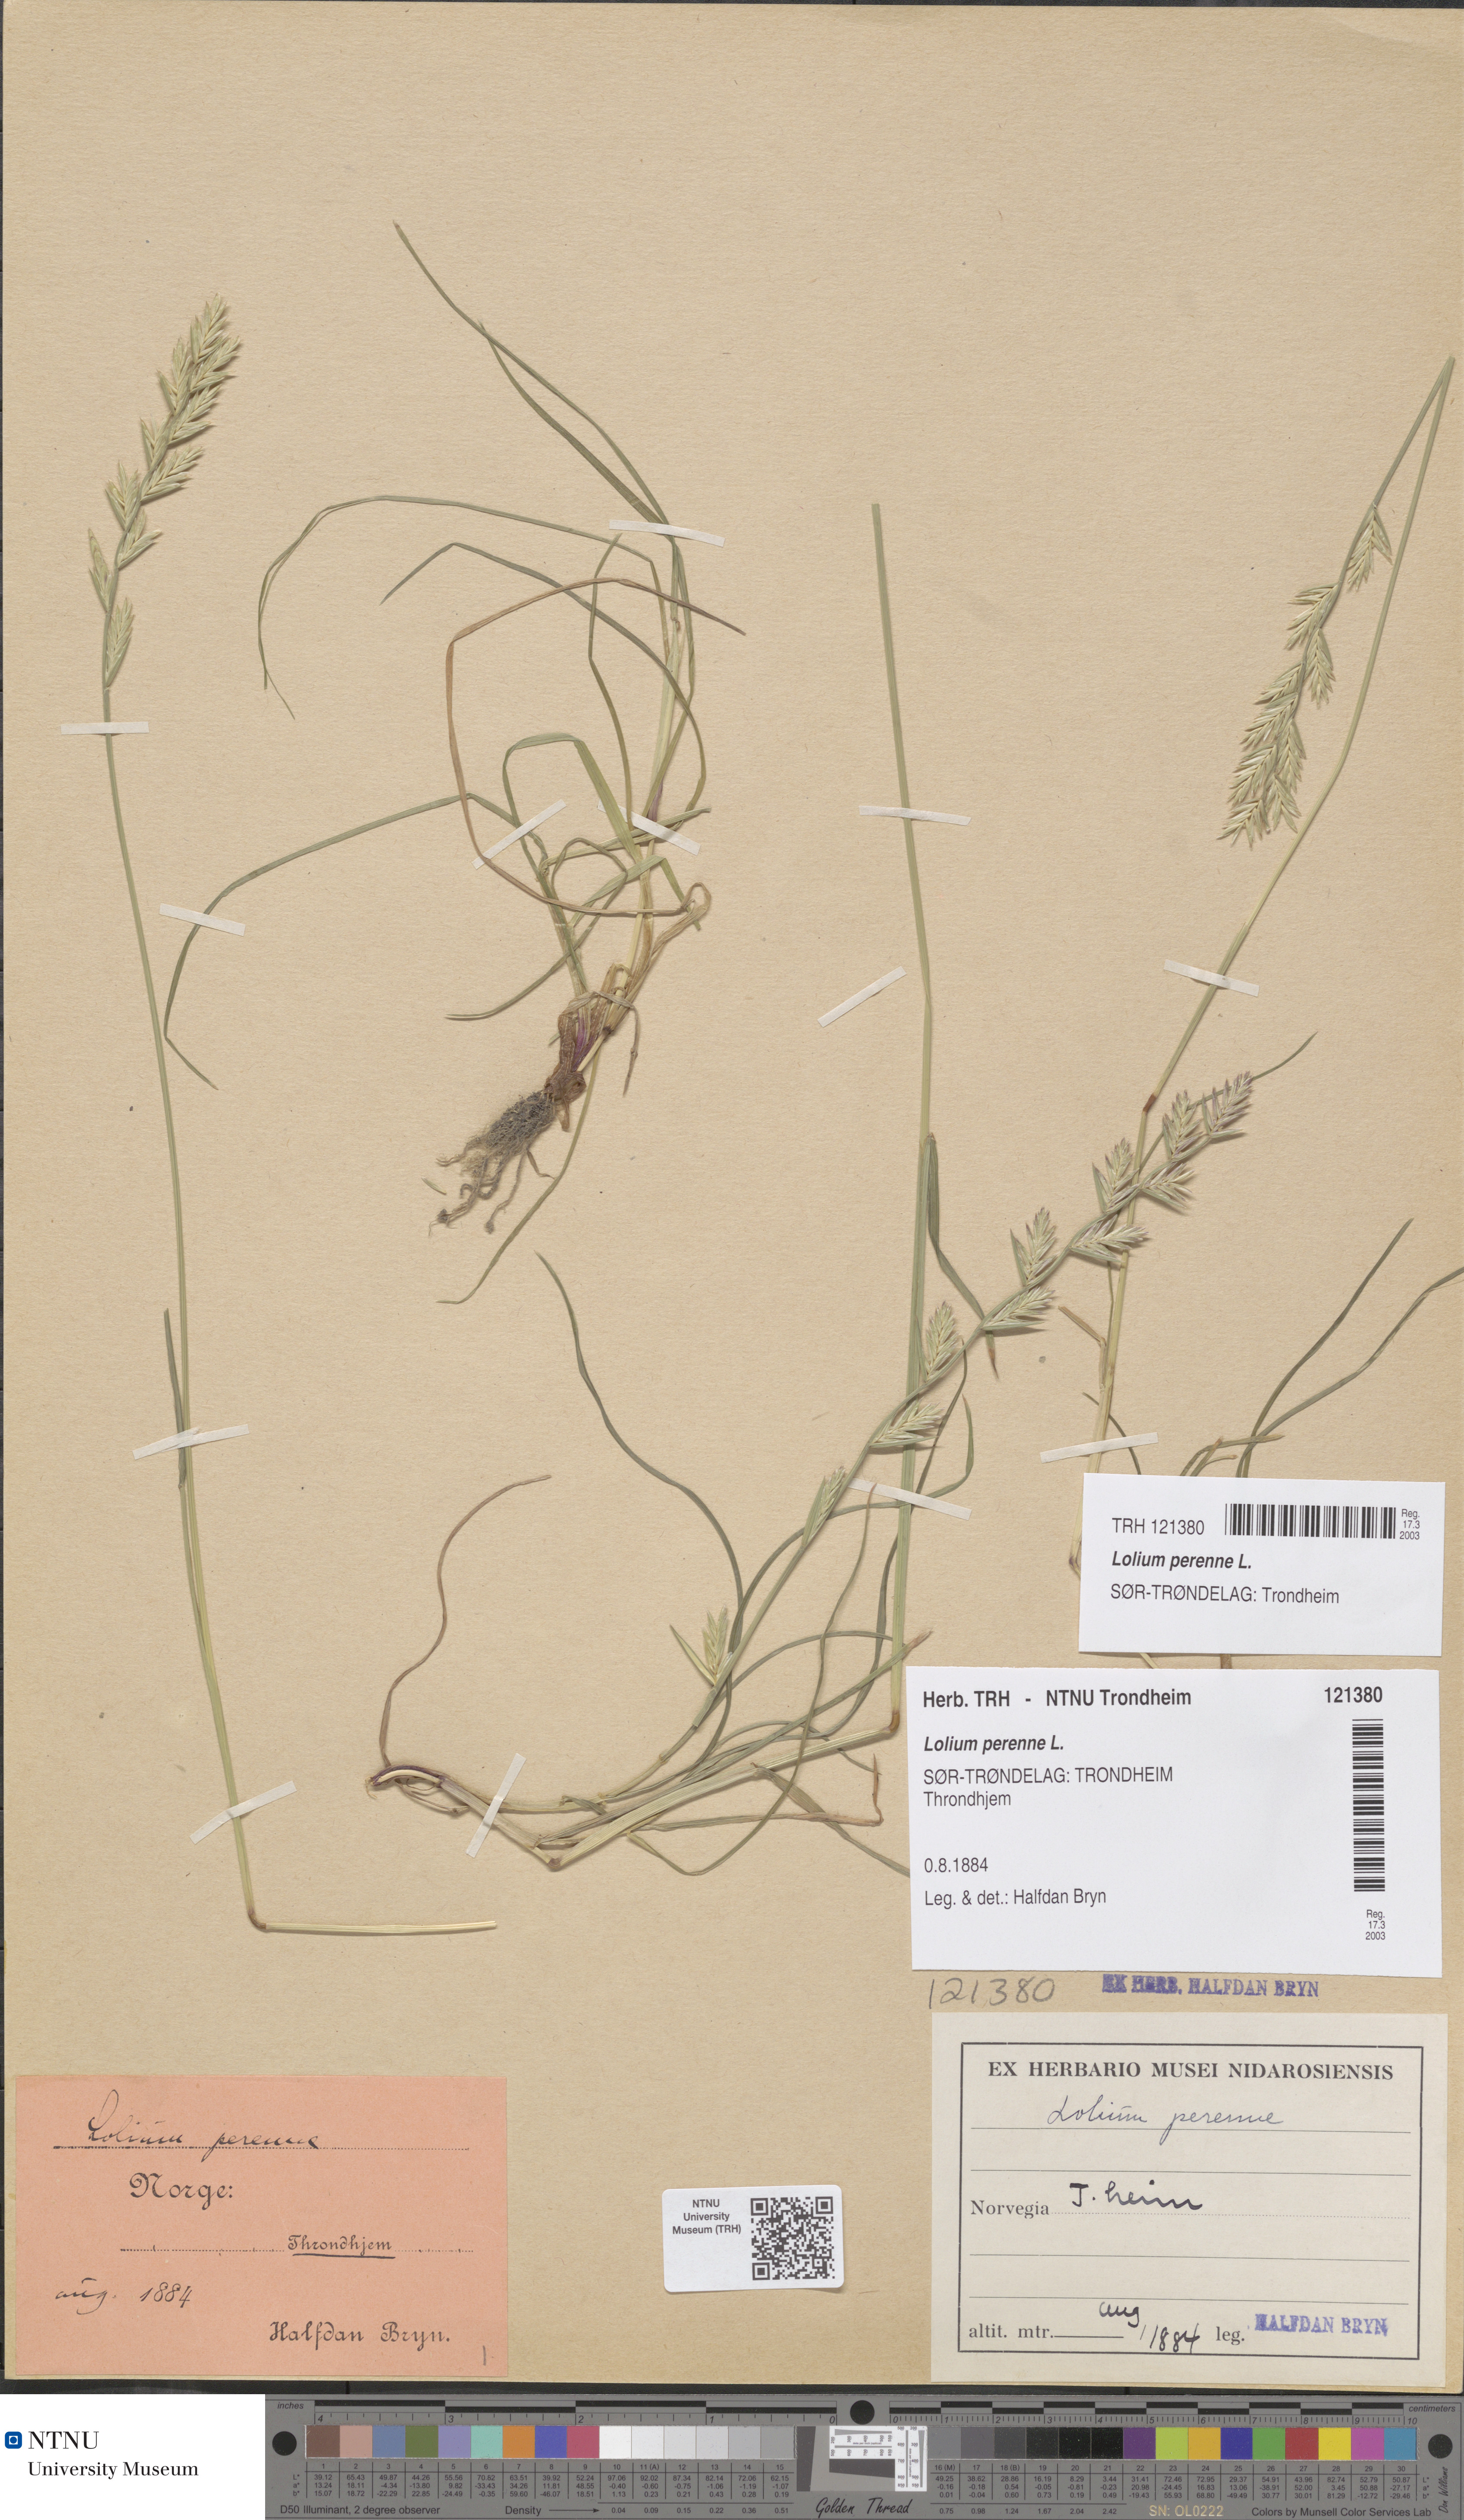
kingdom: Plantae
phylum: Tracheophyta
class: Liliopsida
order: Poales
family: Poaceae
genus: Lolium
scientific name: Lolium perenne
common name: Perennial ryegrass
